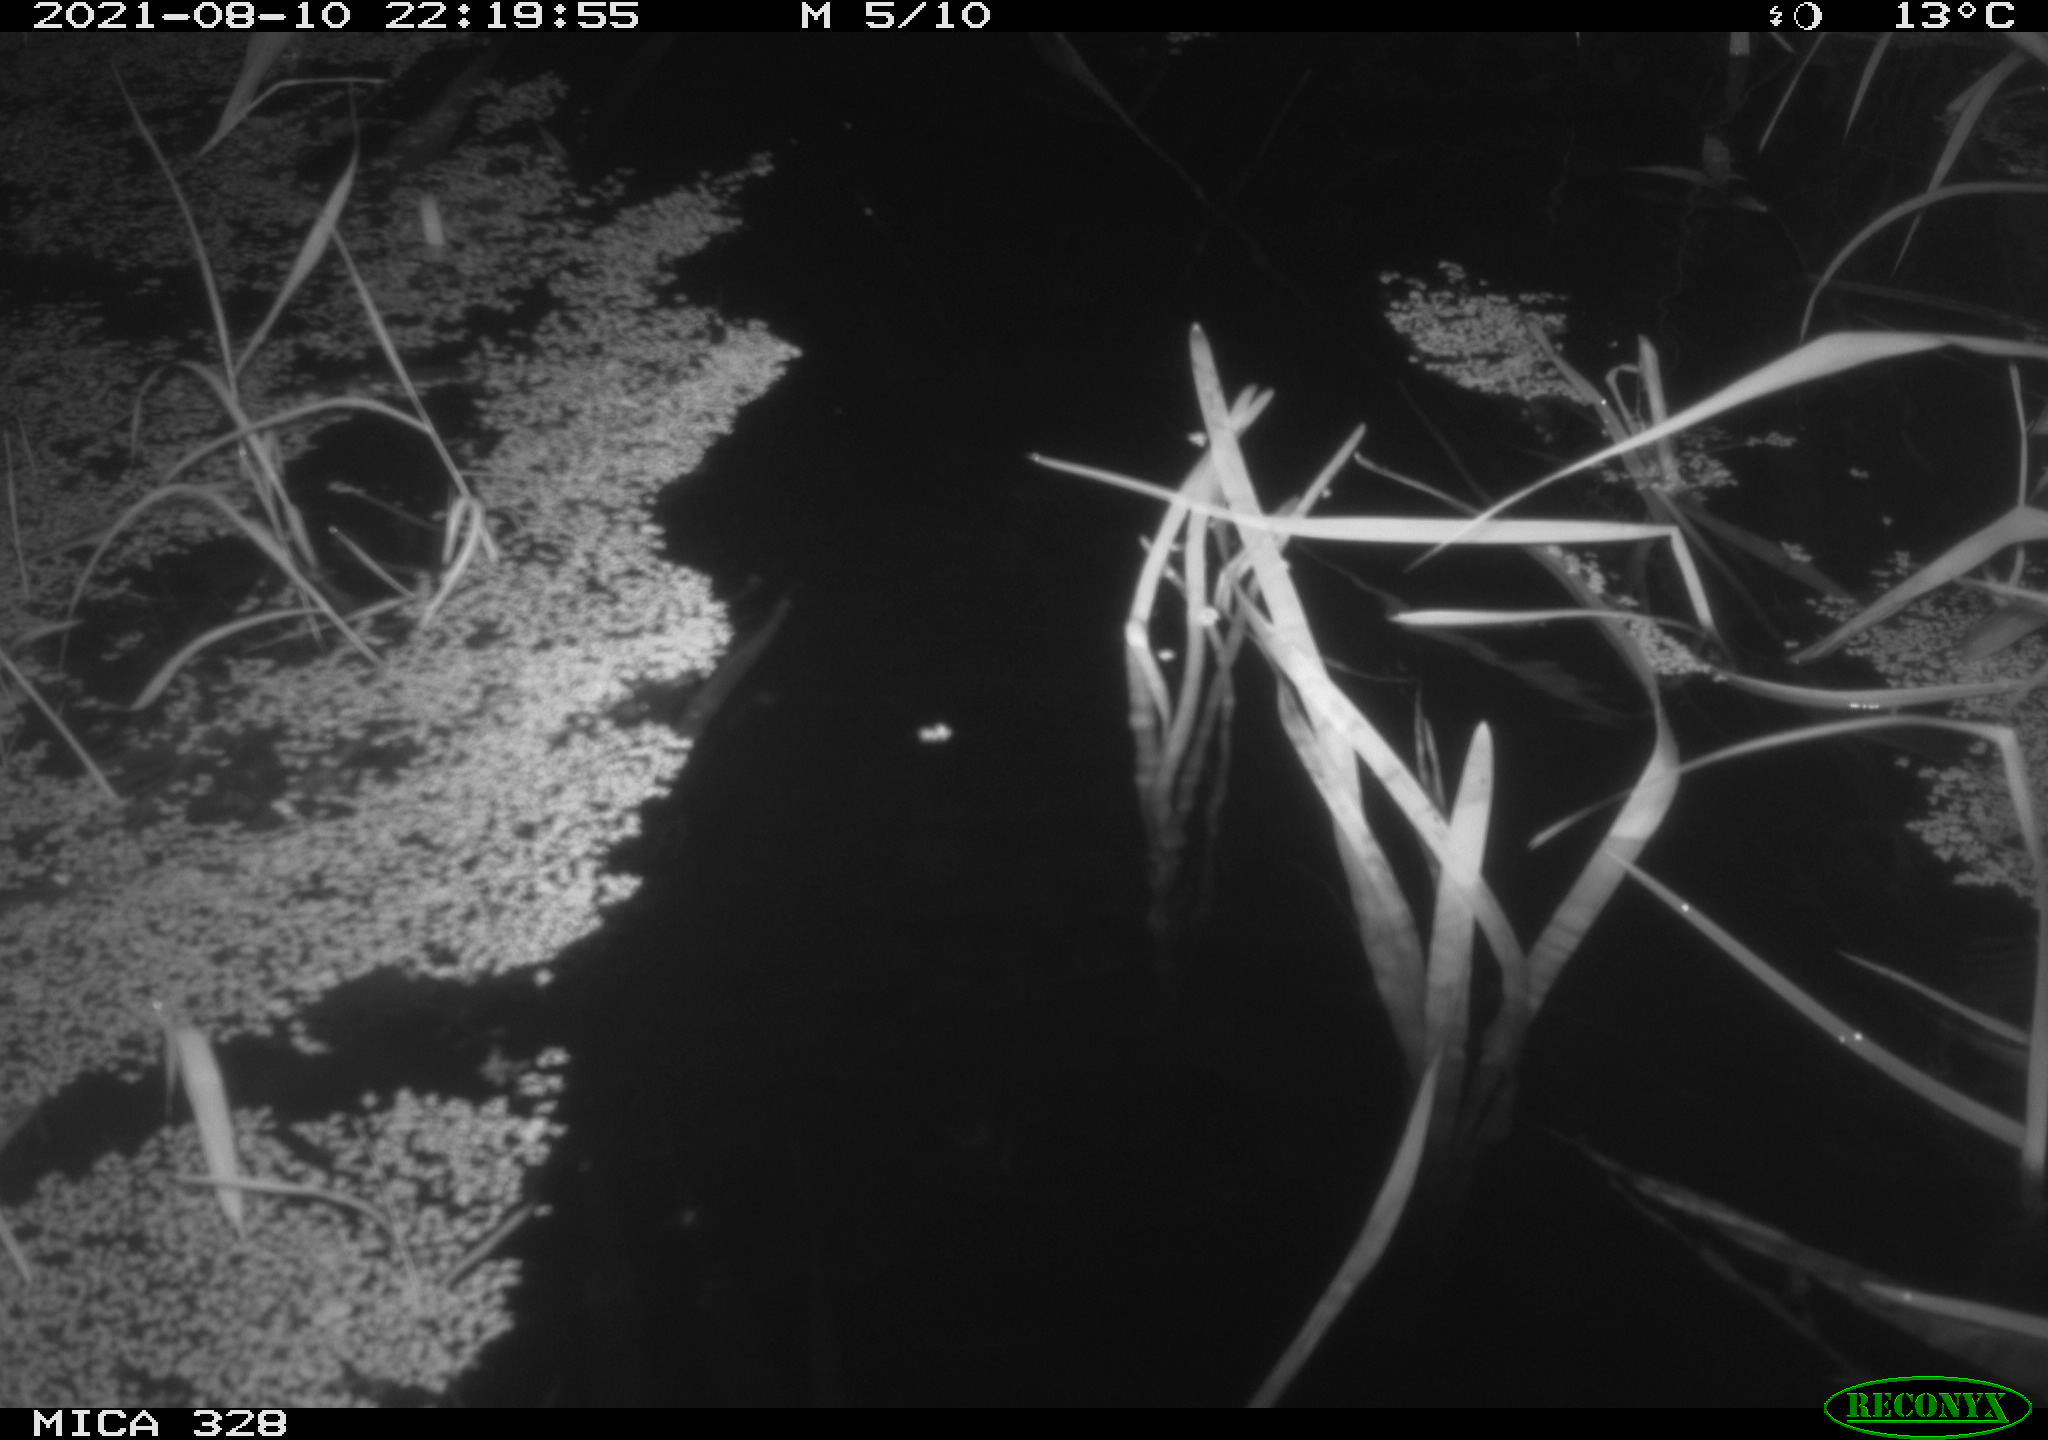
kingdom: Animalia
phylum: Chordata
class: Mammalia
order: Rodentia
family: Cricetidae
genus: Ondatra
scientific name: Ondatra zibethicus
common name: Muskrat
